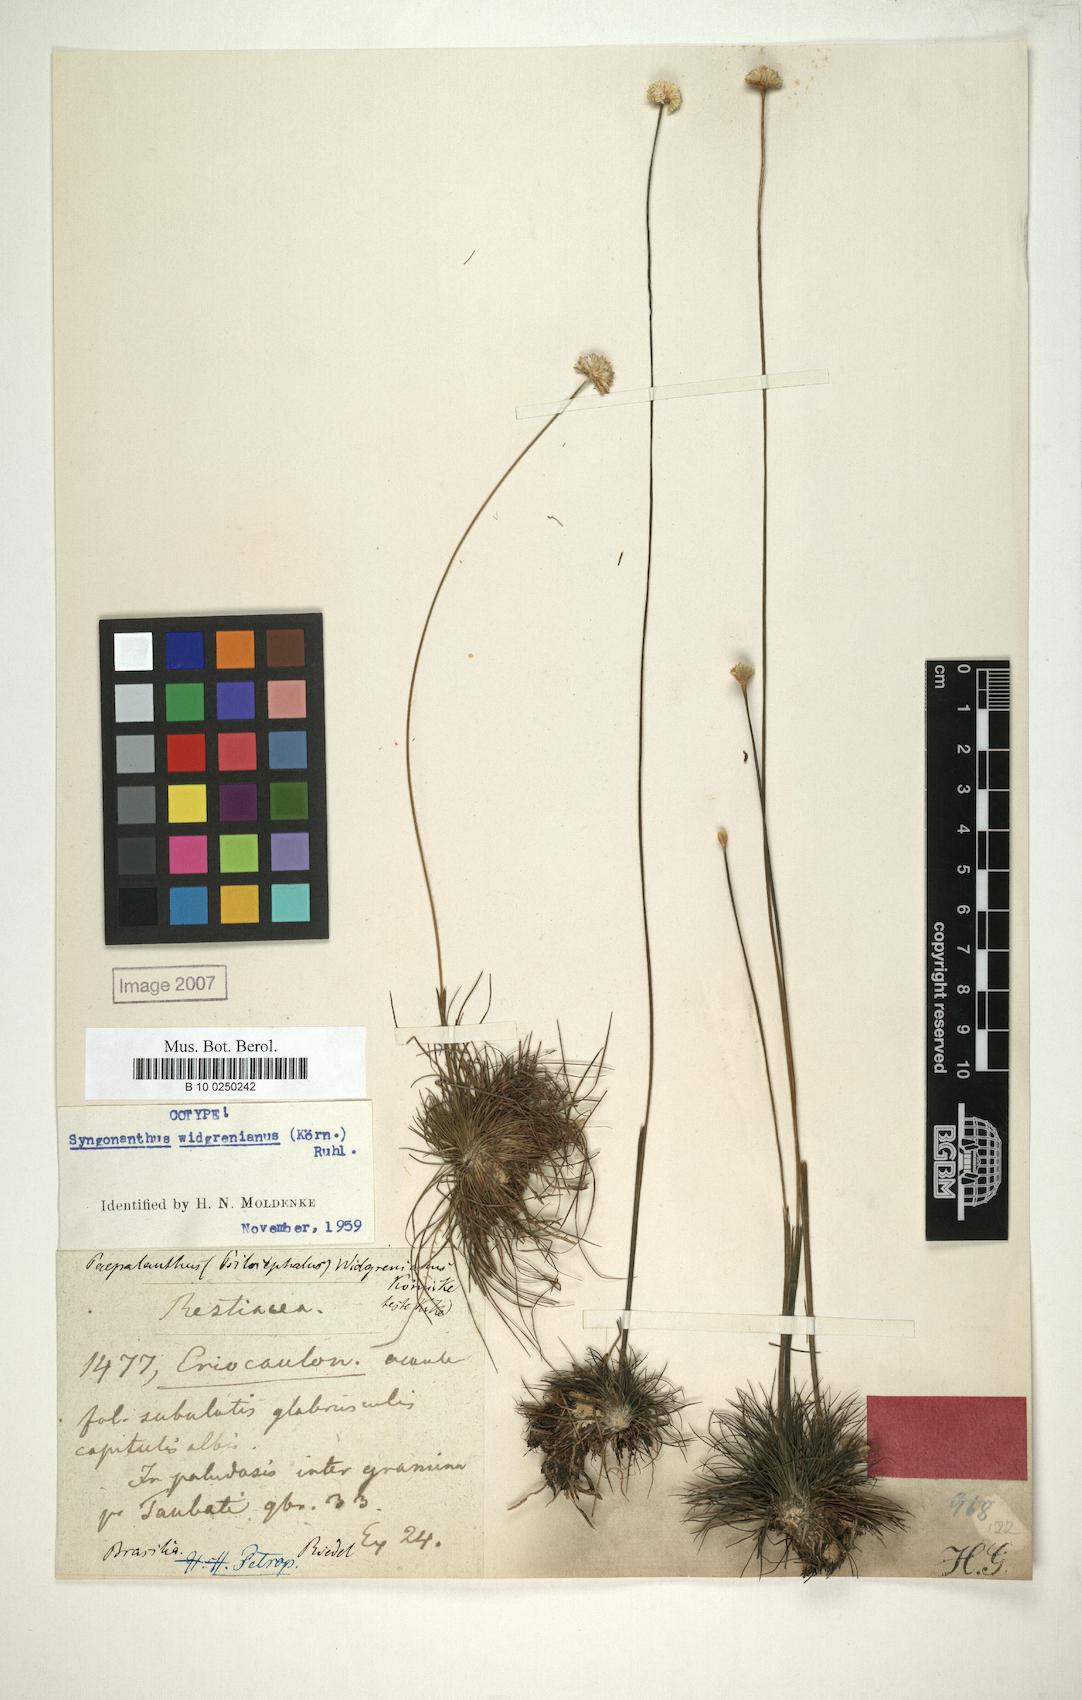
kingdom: Plantae
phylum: Tracheophyta
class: Liliopsida
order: Poales
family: Eriocaulaceae
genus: Syngonanthus
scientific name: Syngonanthus widgrenianus
